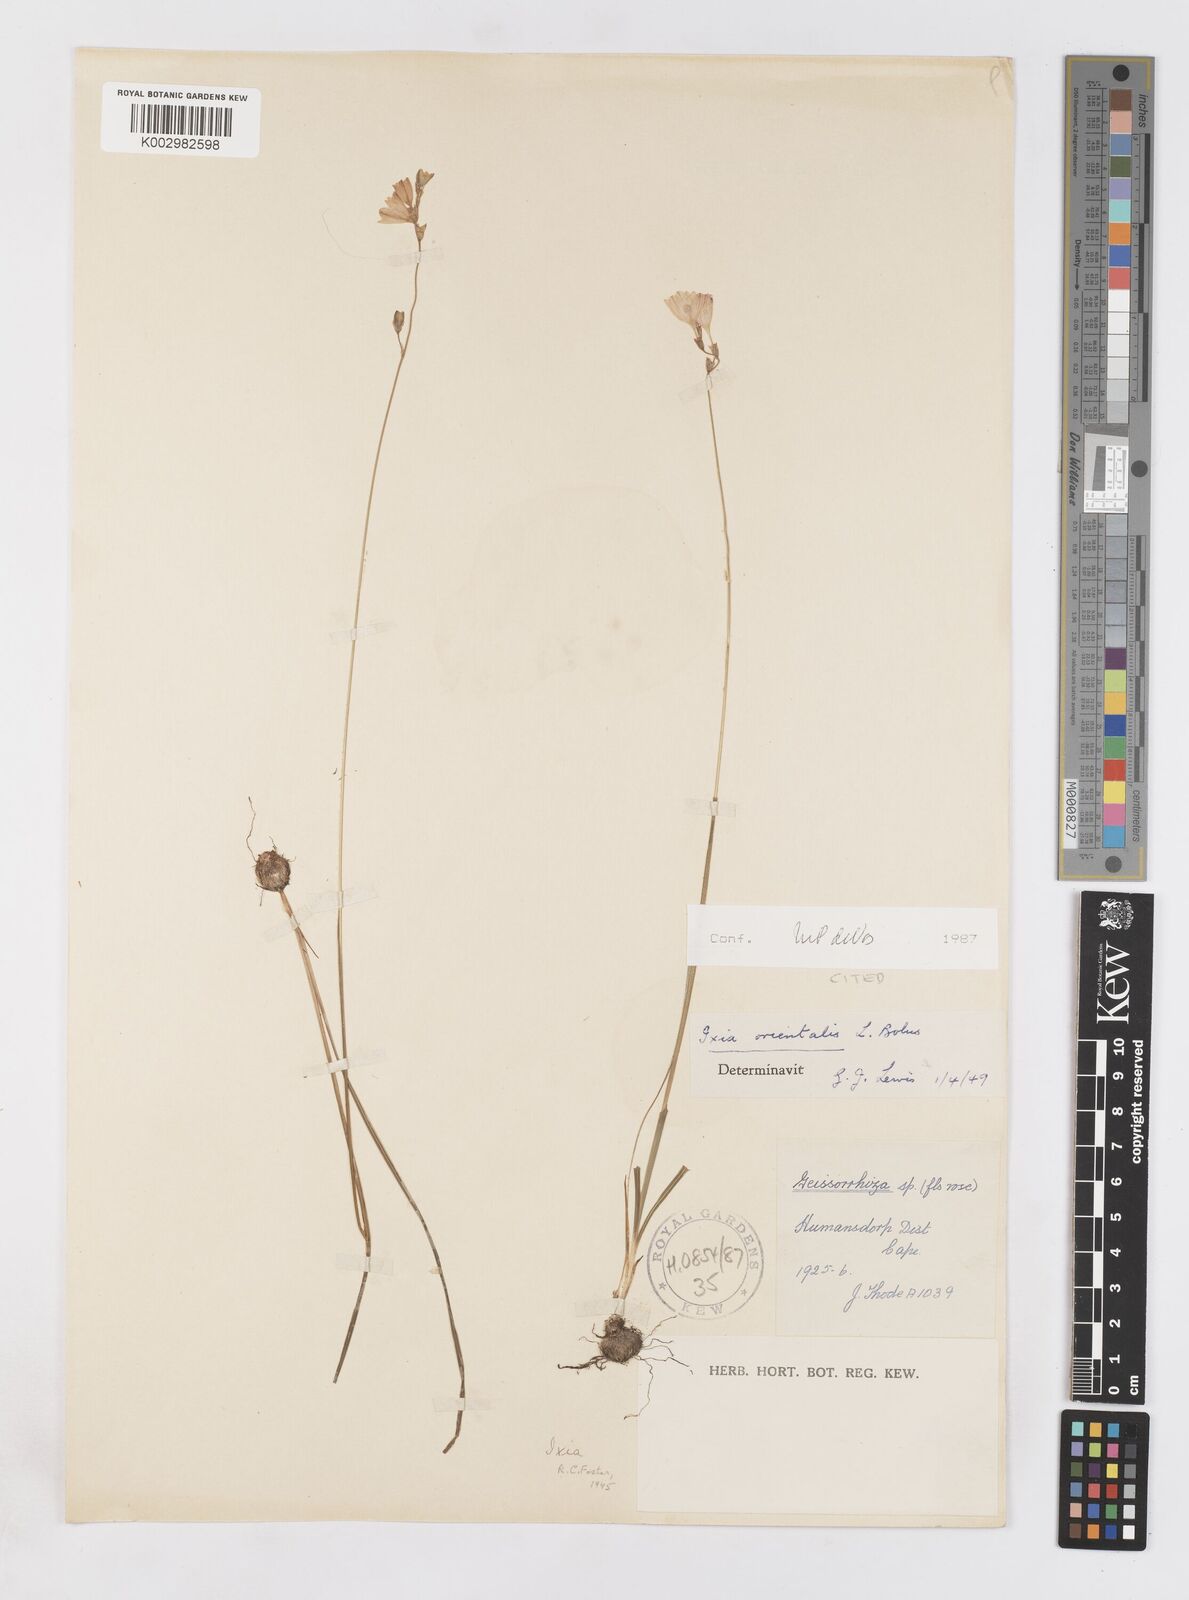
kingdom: Plantae
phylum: Tracheophyta
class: Liliopsida
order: Asparagales
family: Iridaceae
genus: Ixia
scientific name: Ixia orientalis
